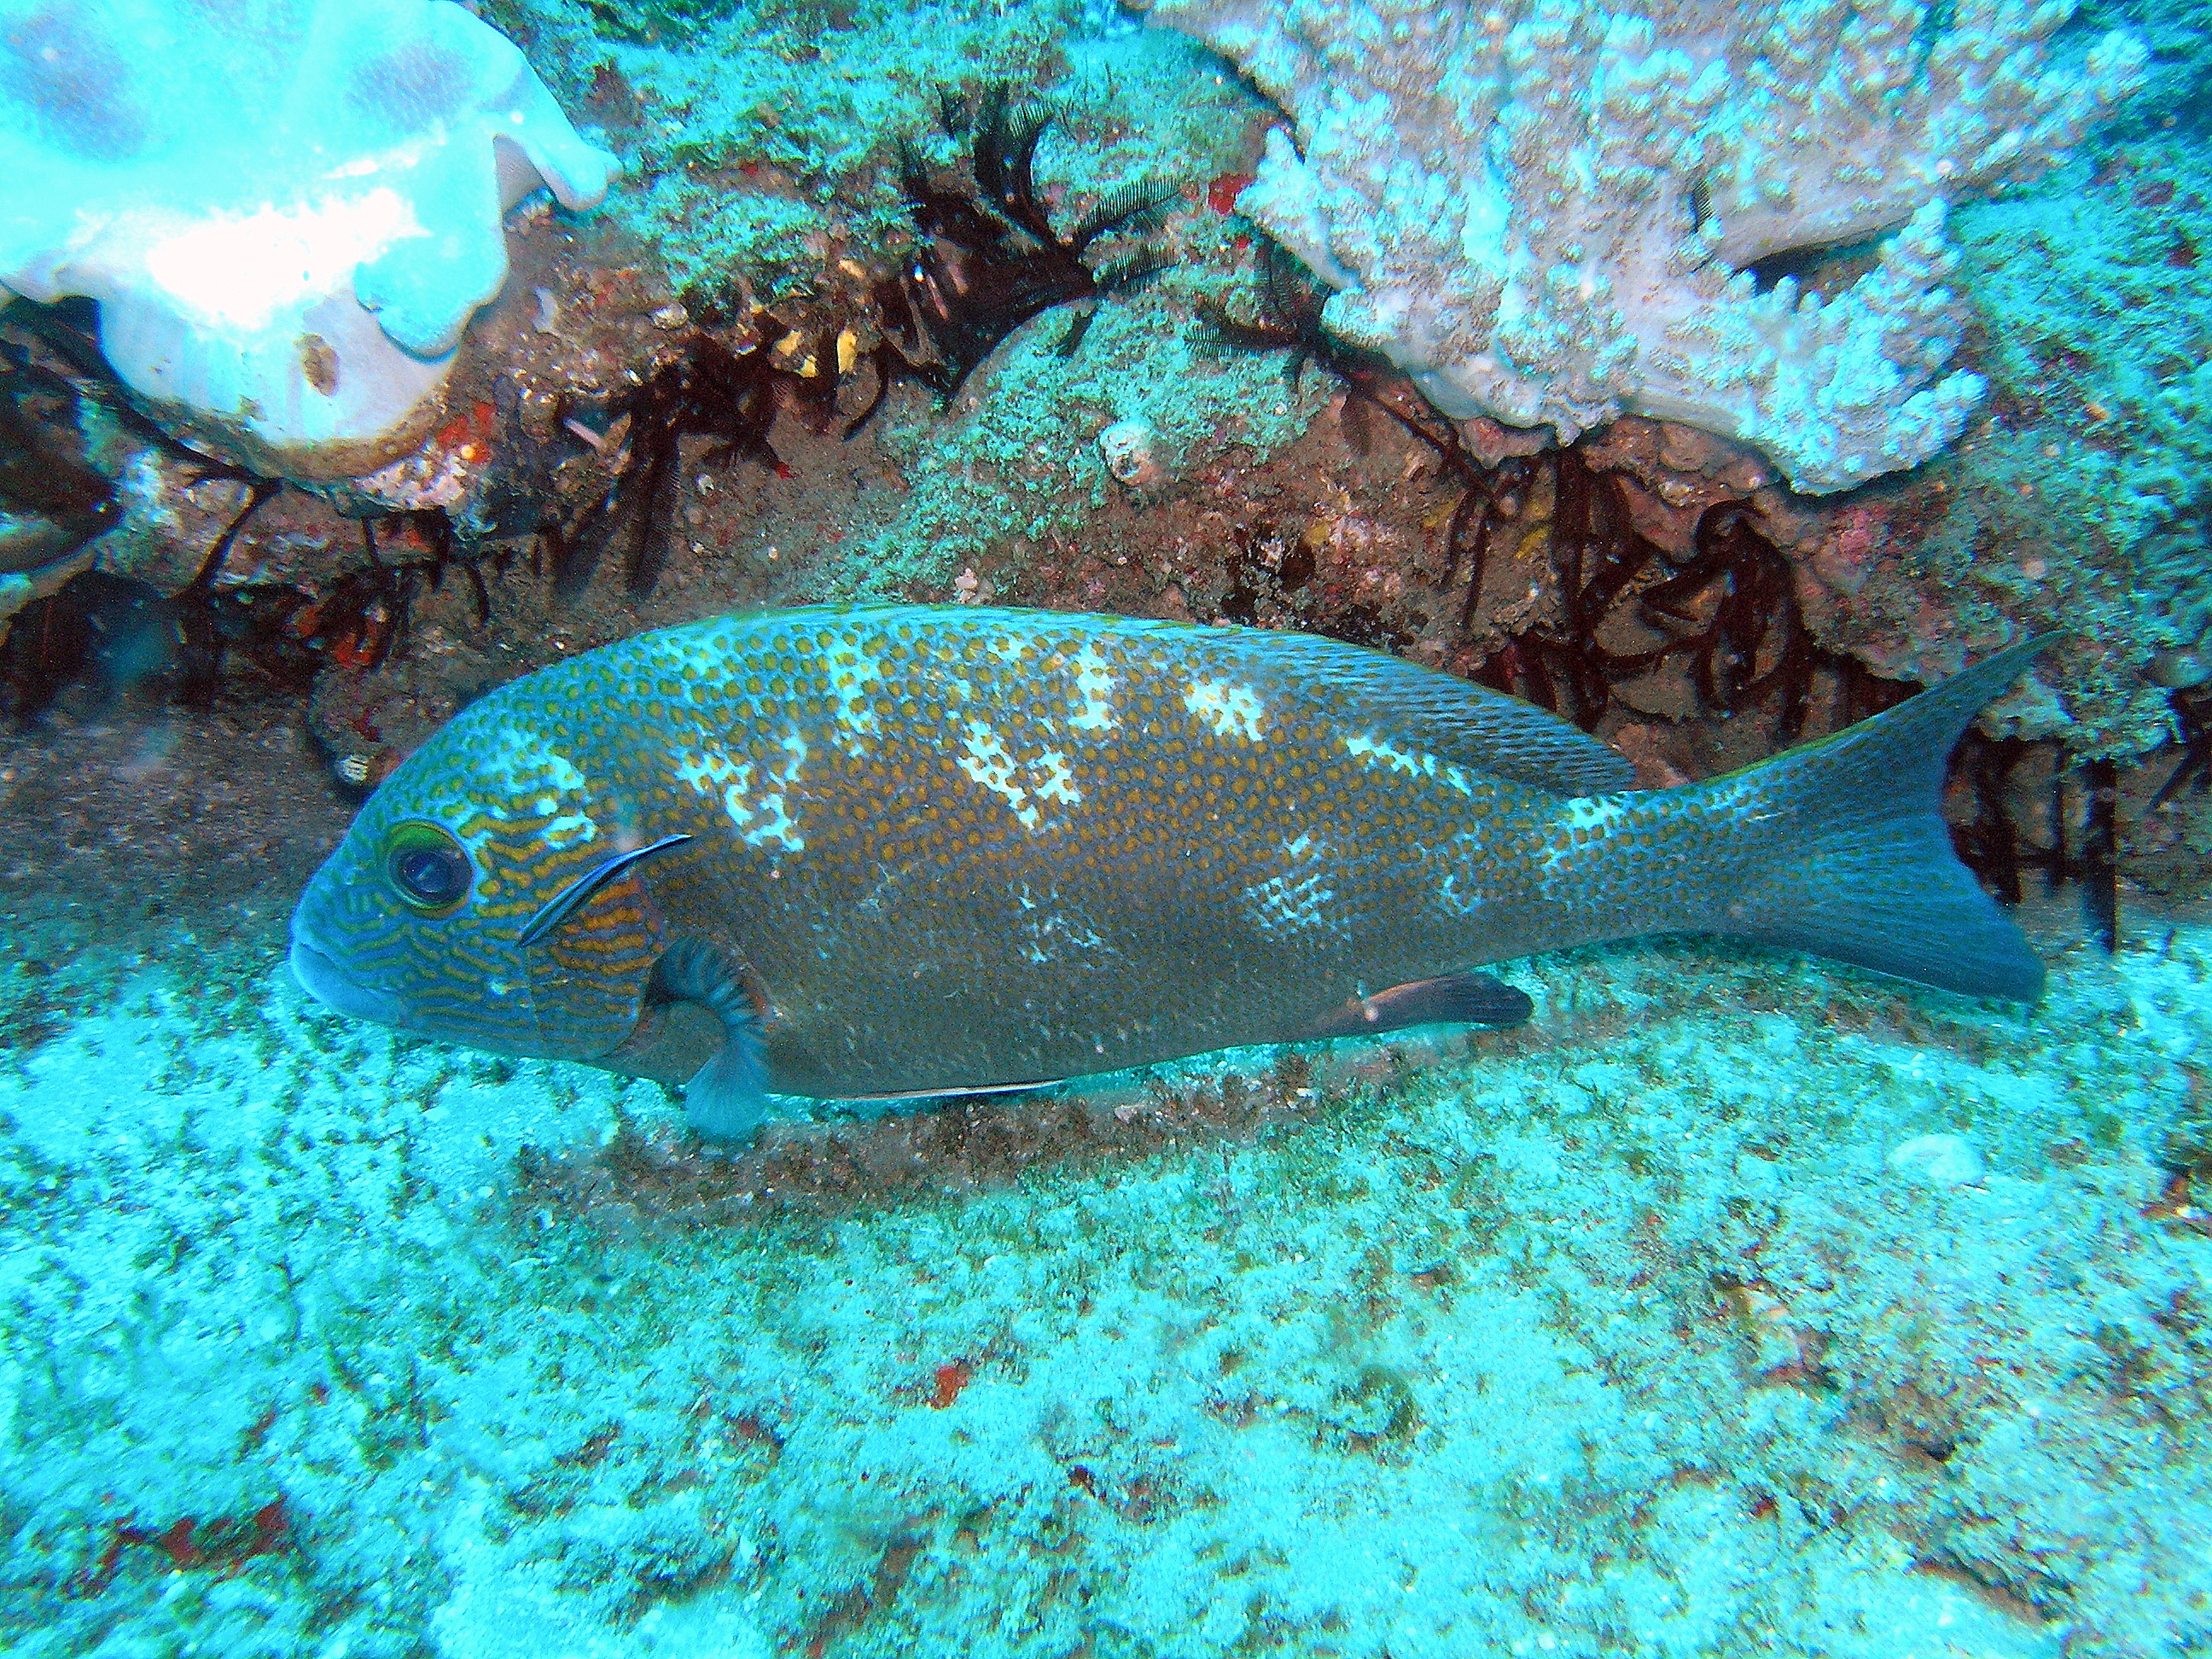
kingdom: Animalia
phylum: Chordata
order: Perciformes
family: Haemulidae
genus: Plectorhinchus
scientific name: Plectorhinchus flavomaculatus
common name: Netted sweetlips
